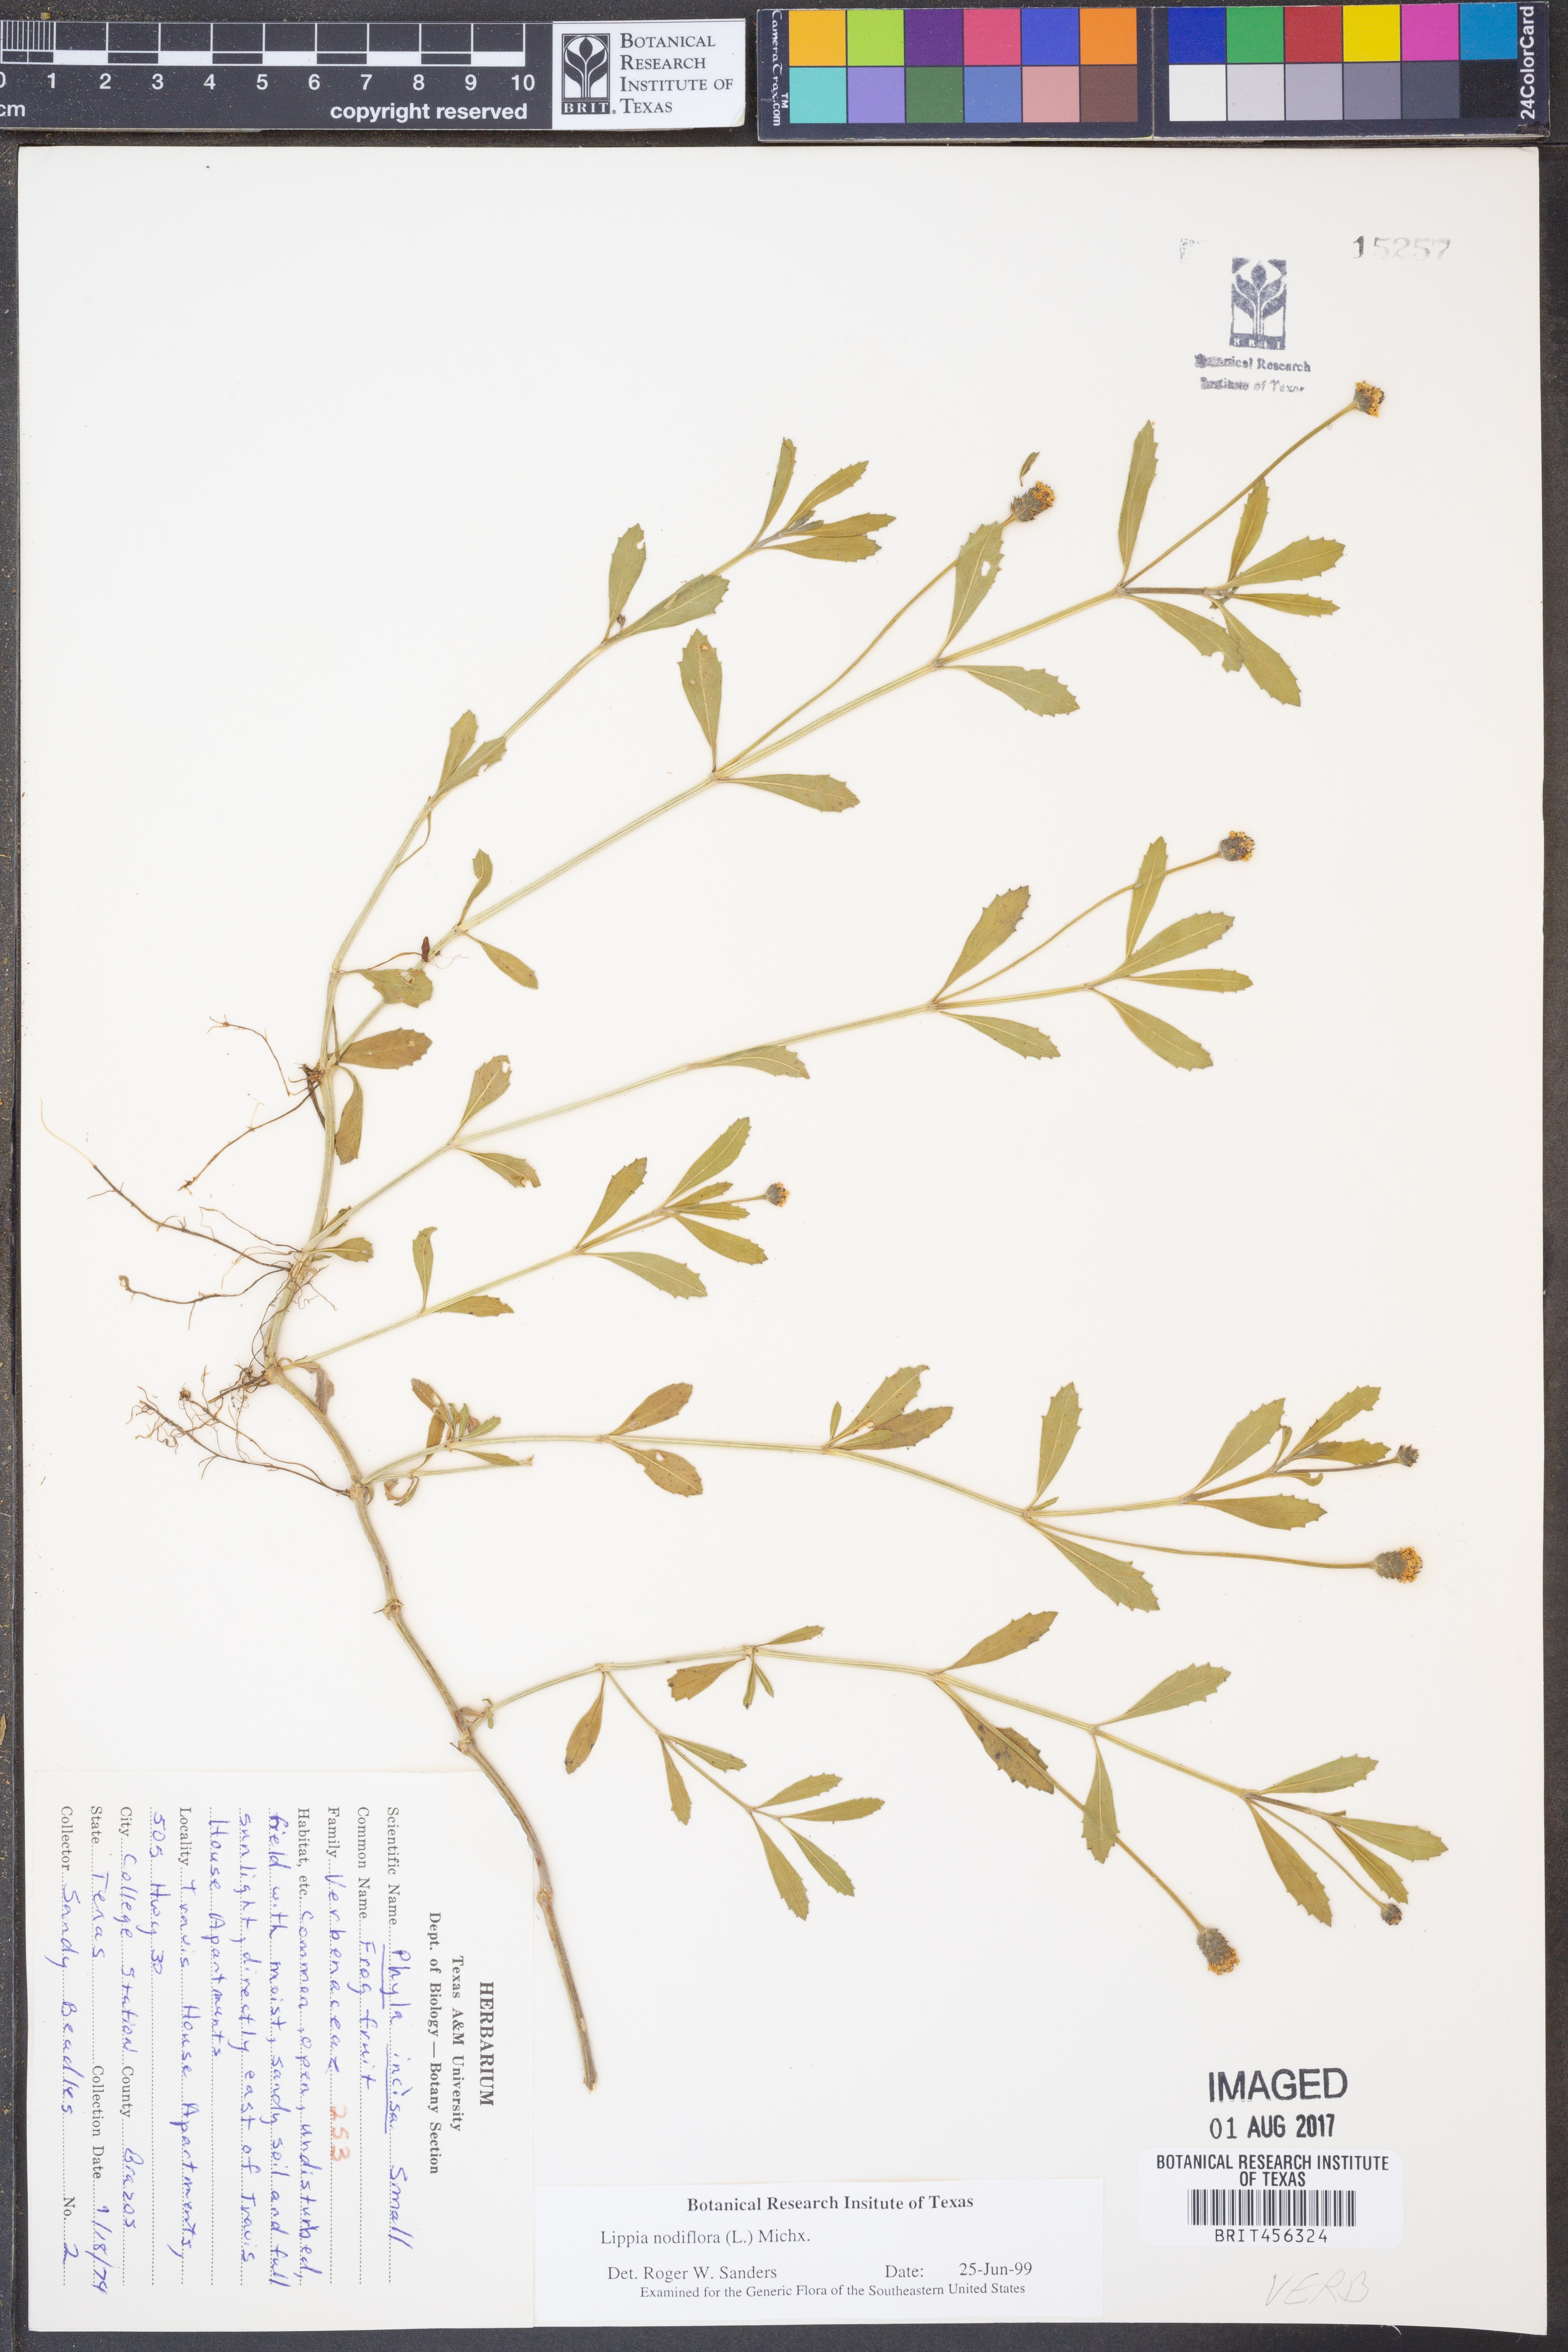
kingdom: Plantae
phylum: Tracheophyta
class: Magnoliopsida
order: Lamiales
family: Verbenaceae
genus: Phyla
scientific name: Phyla nodiflora
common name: Frogfruit
